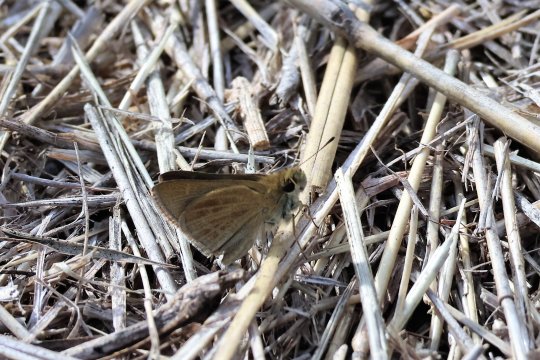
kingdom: Animalia
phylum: Arthropoda
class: Insecta
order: Lepidoptera
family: Hesperiidae
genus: Nastra
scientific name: Nastra julia
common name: Julia's Skipper
